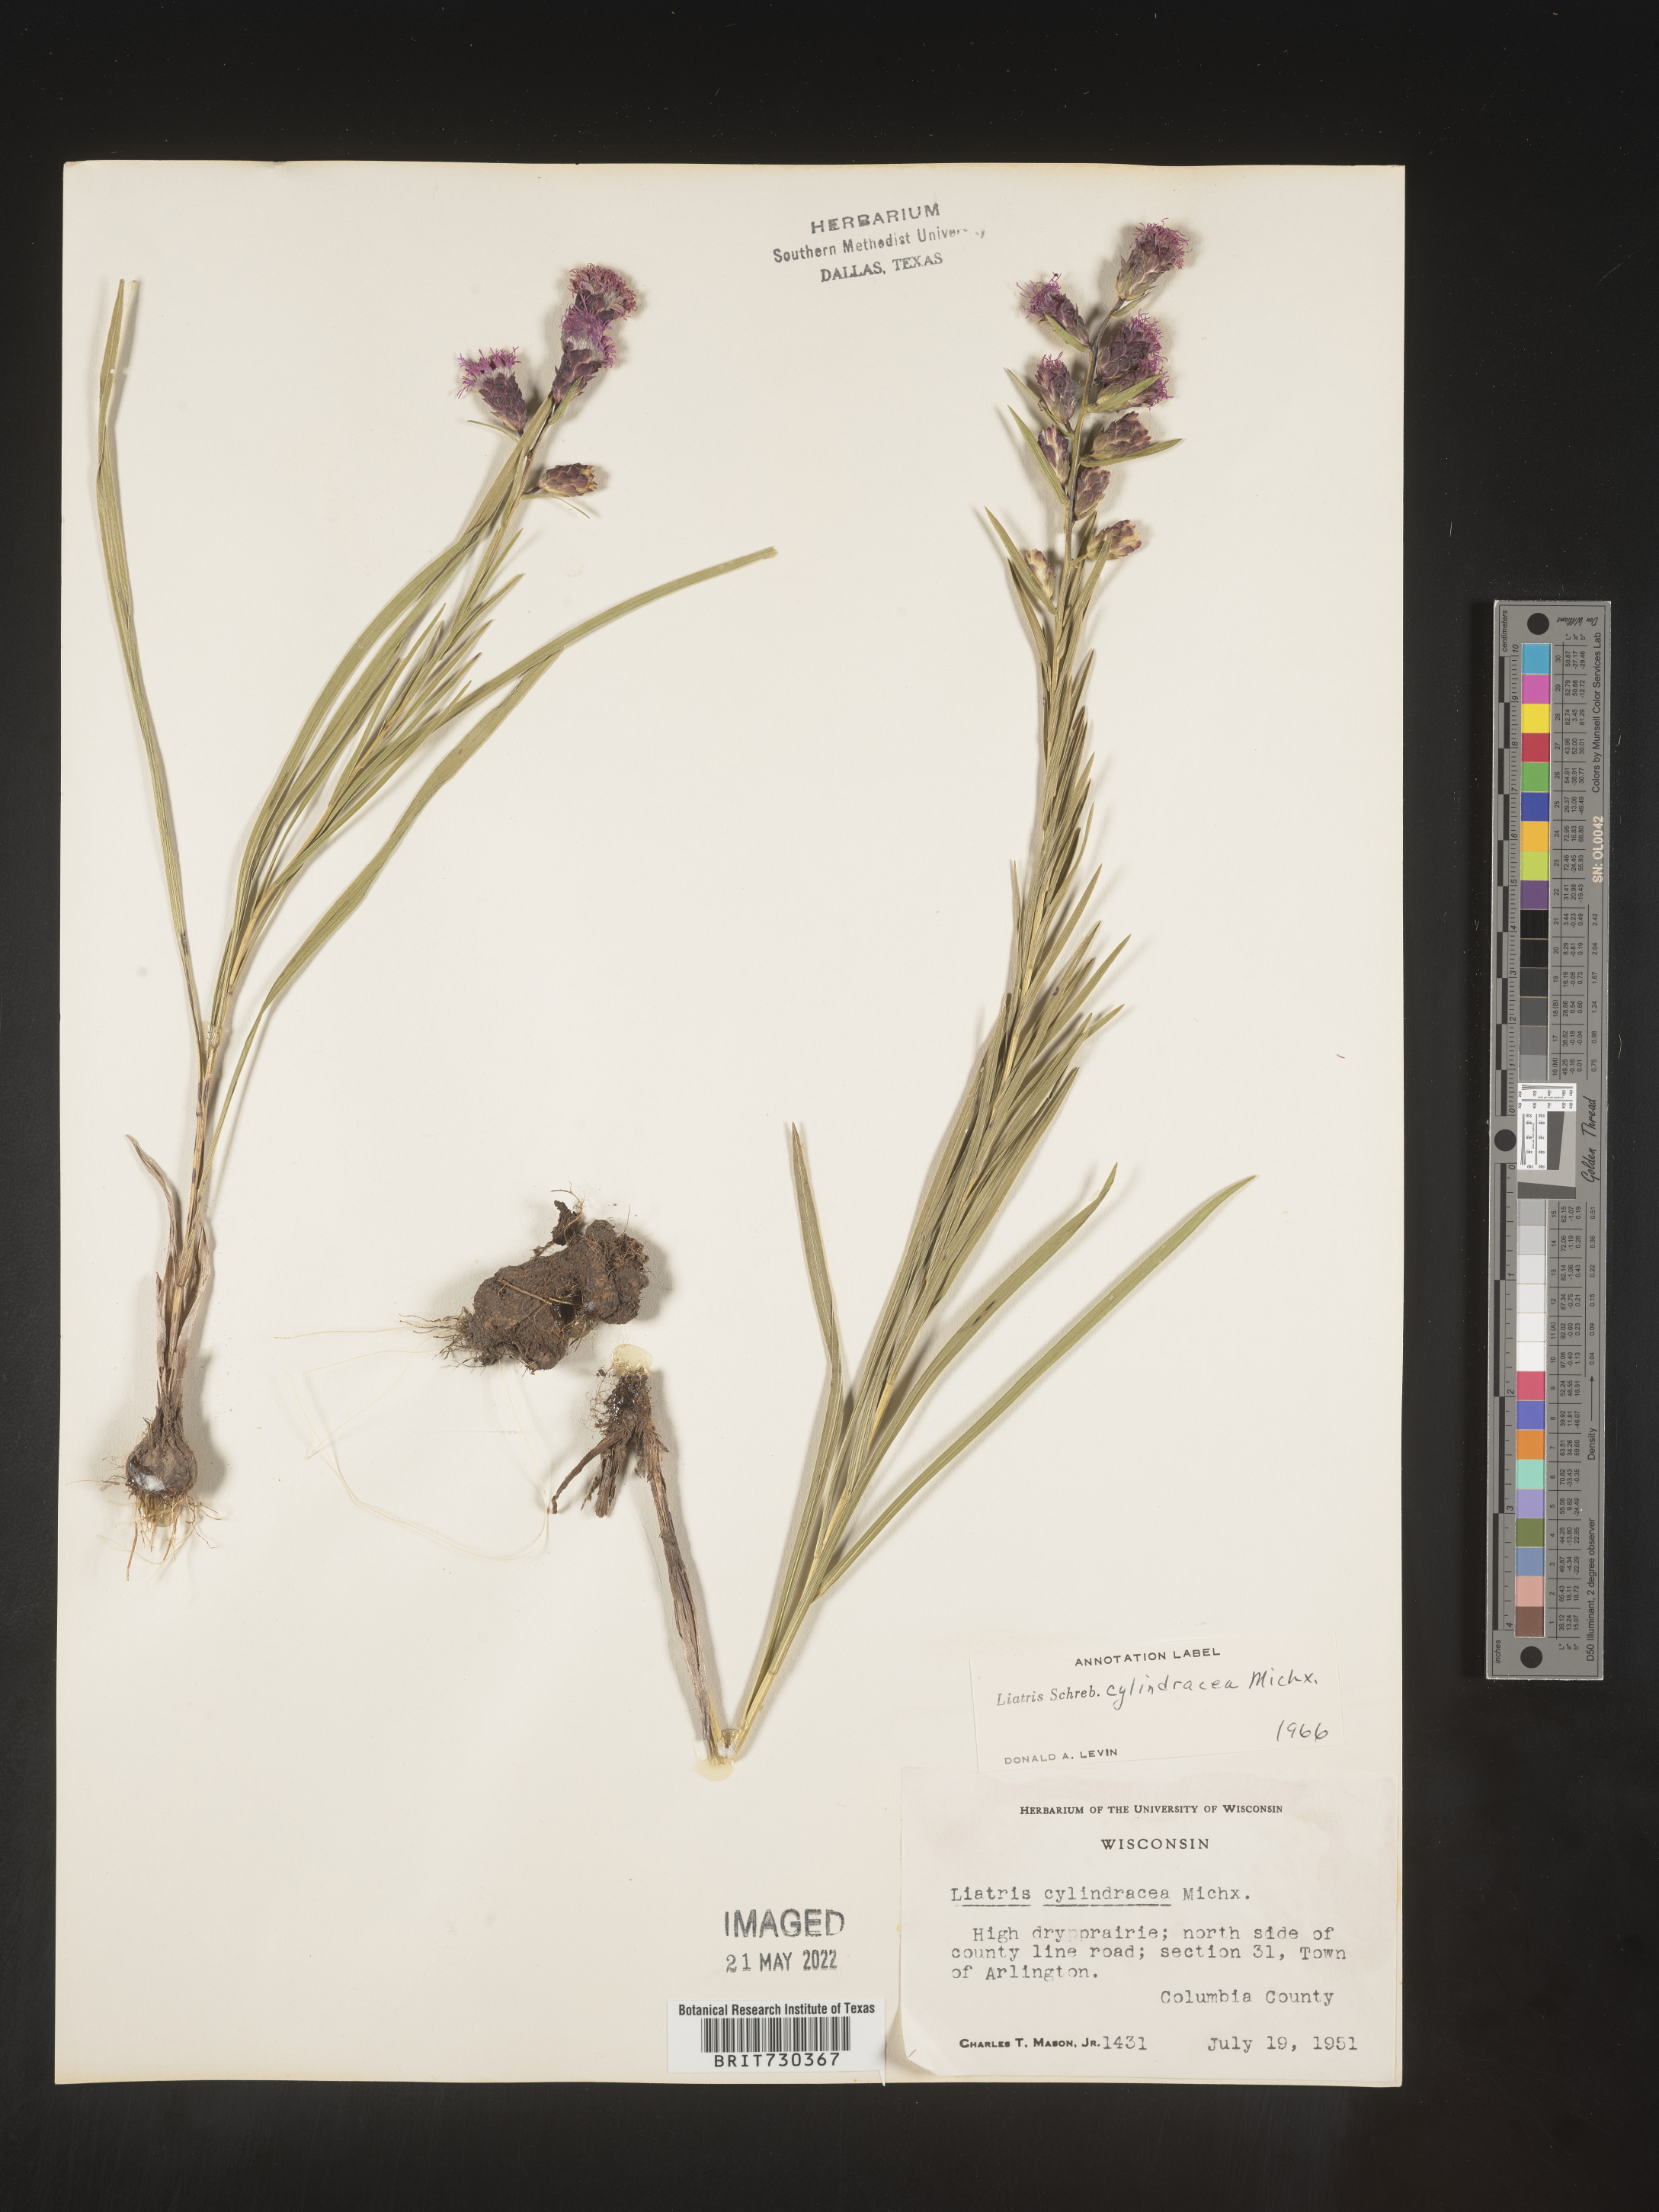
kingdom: Plantae
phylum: Tracheophyta
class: Magnoliopsida
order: Asterales
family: Asteraceae
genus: Liatris
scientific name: Liatris cylindracea
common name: Few-head blazingstar
